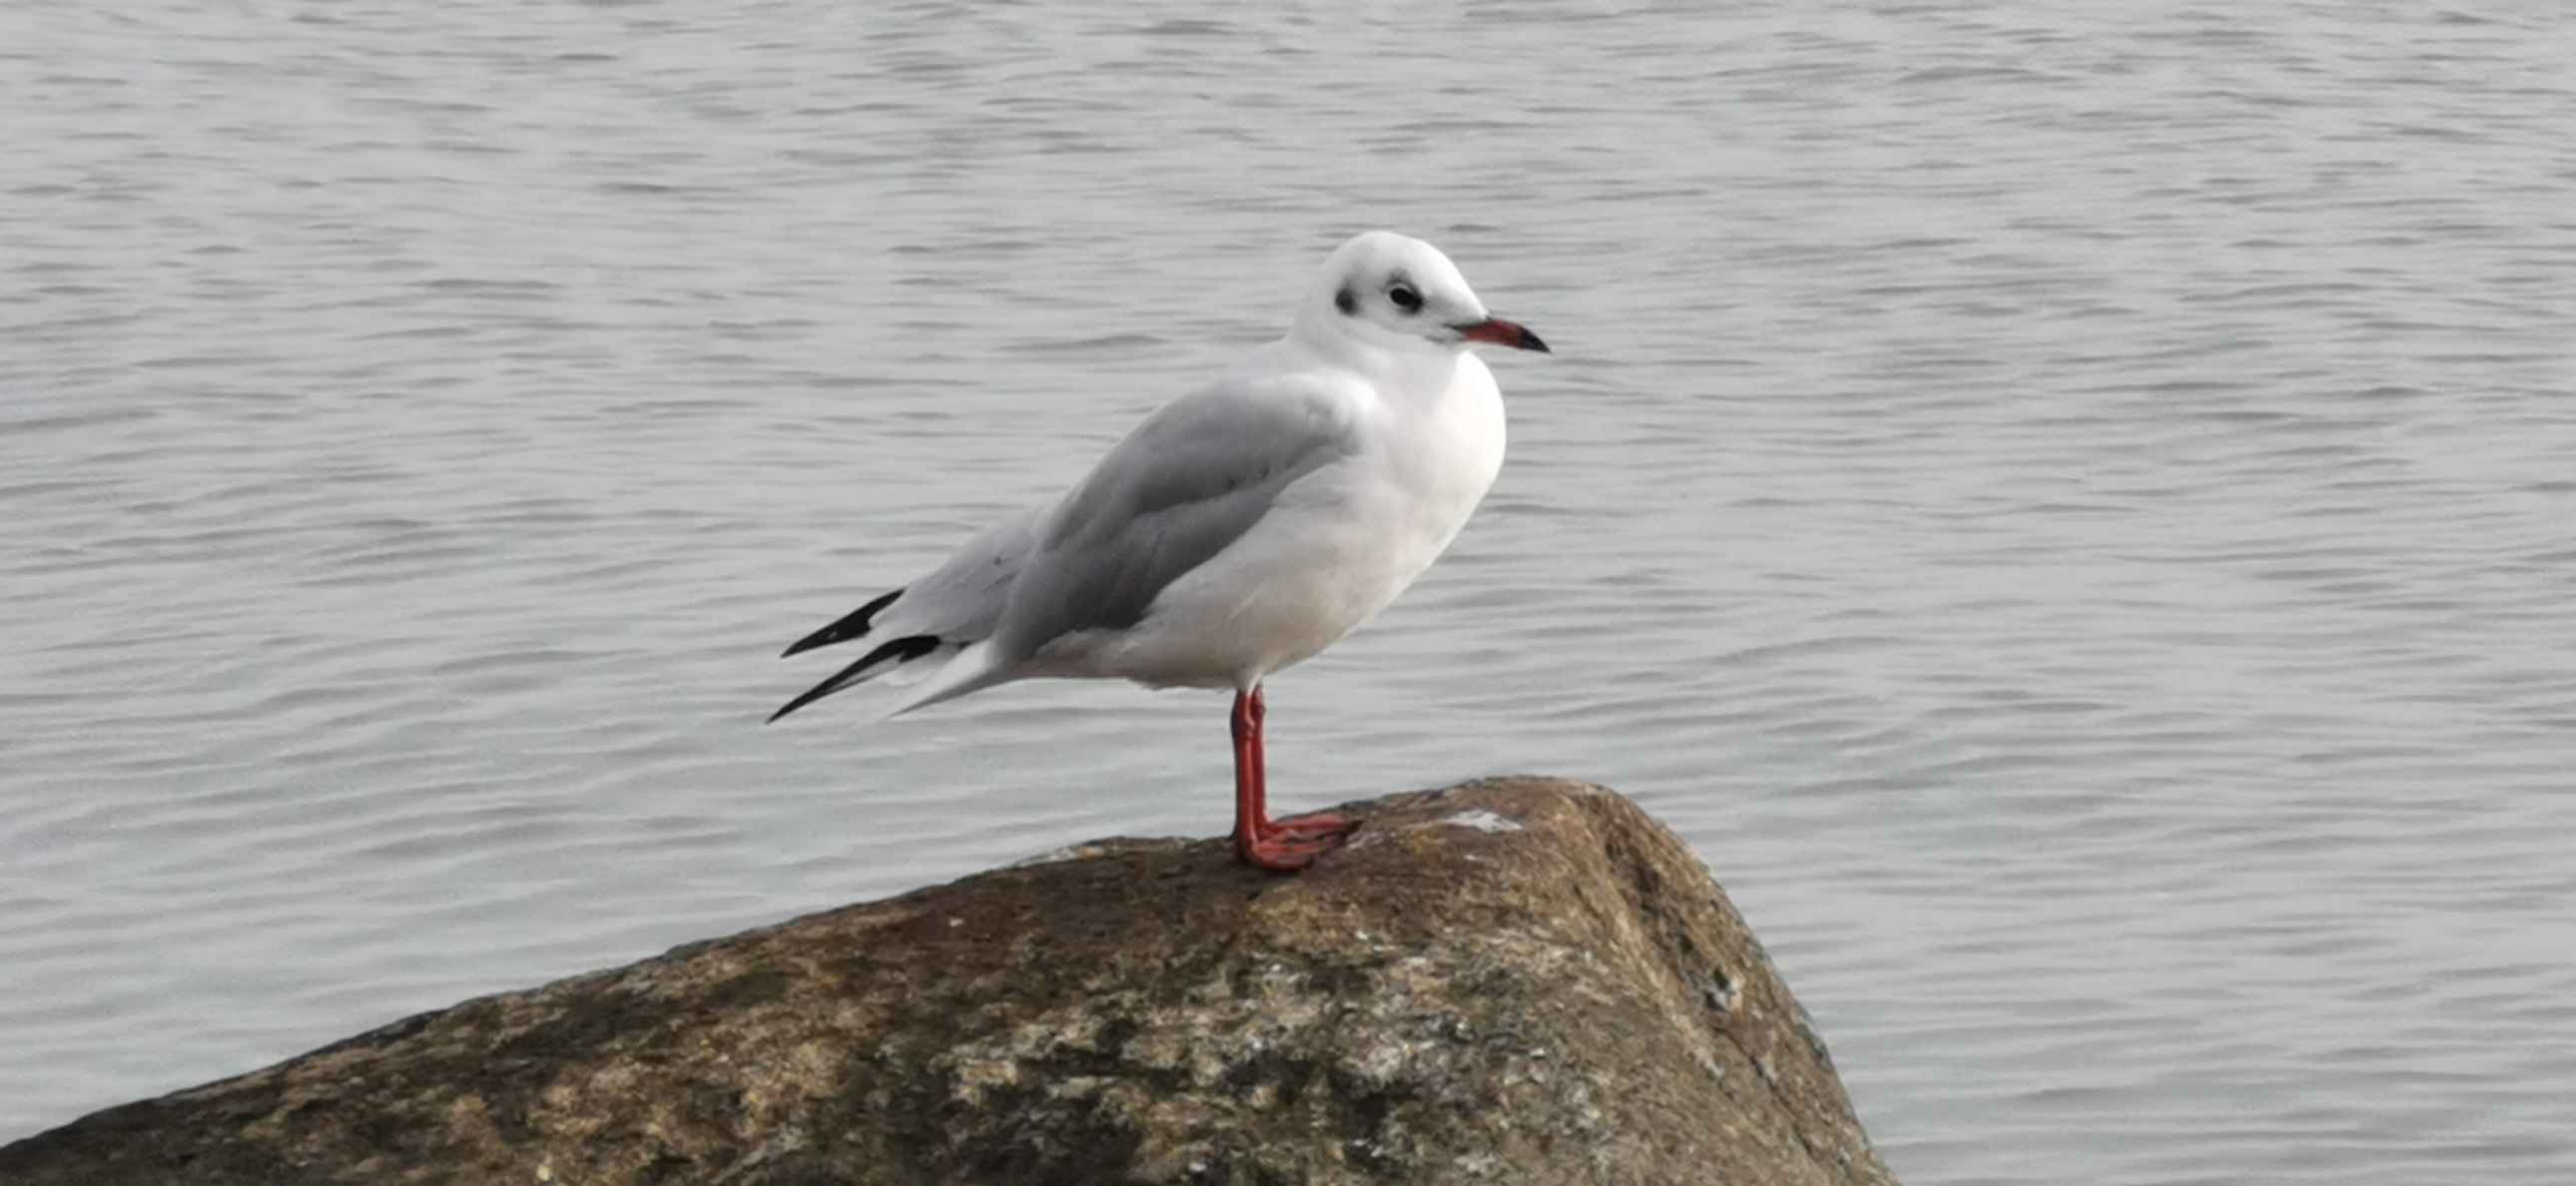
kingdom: Animalia
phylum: Chordata
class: Aves
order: Charadriiformes
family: Laridae
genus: Chroicocephalus
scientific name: Chroicocephalus ridibundus
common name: Hættemåge
